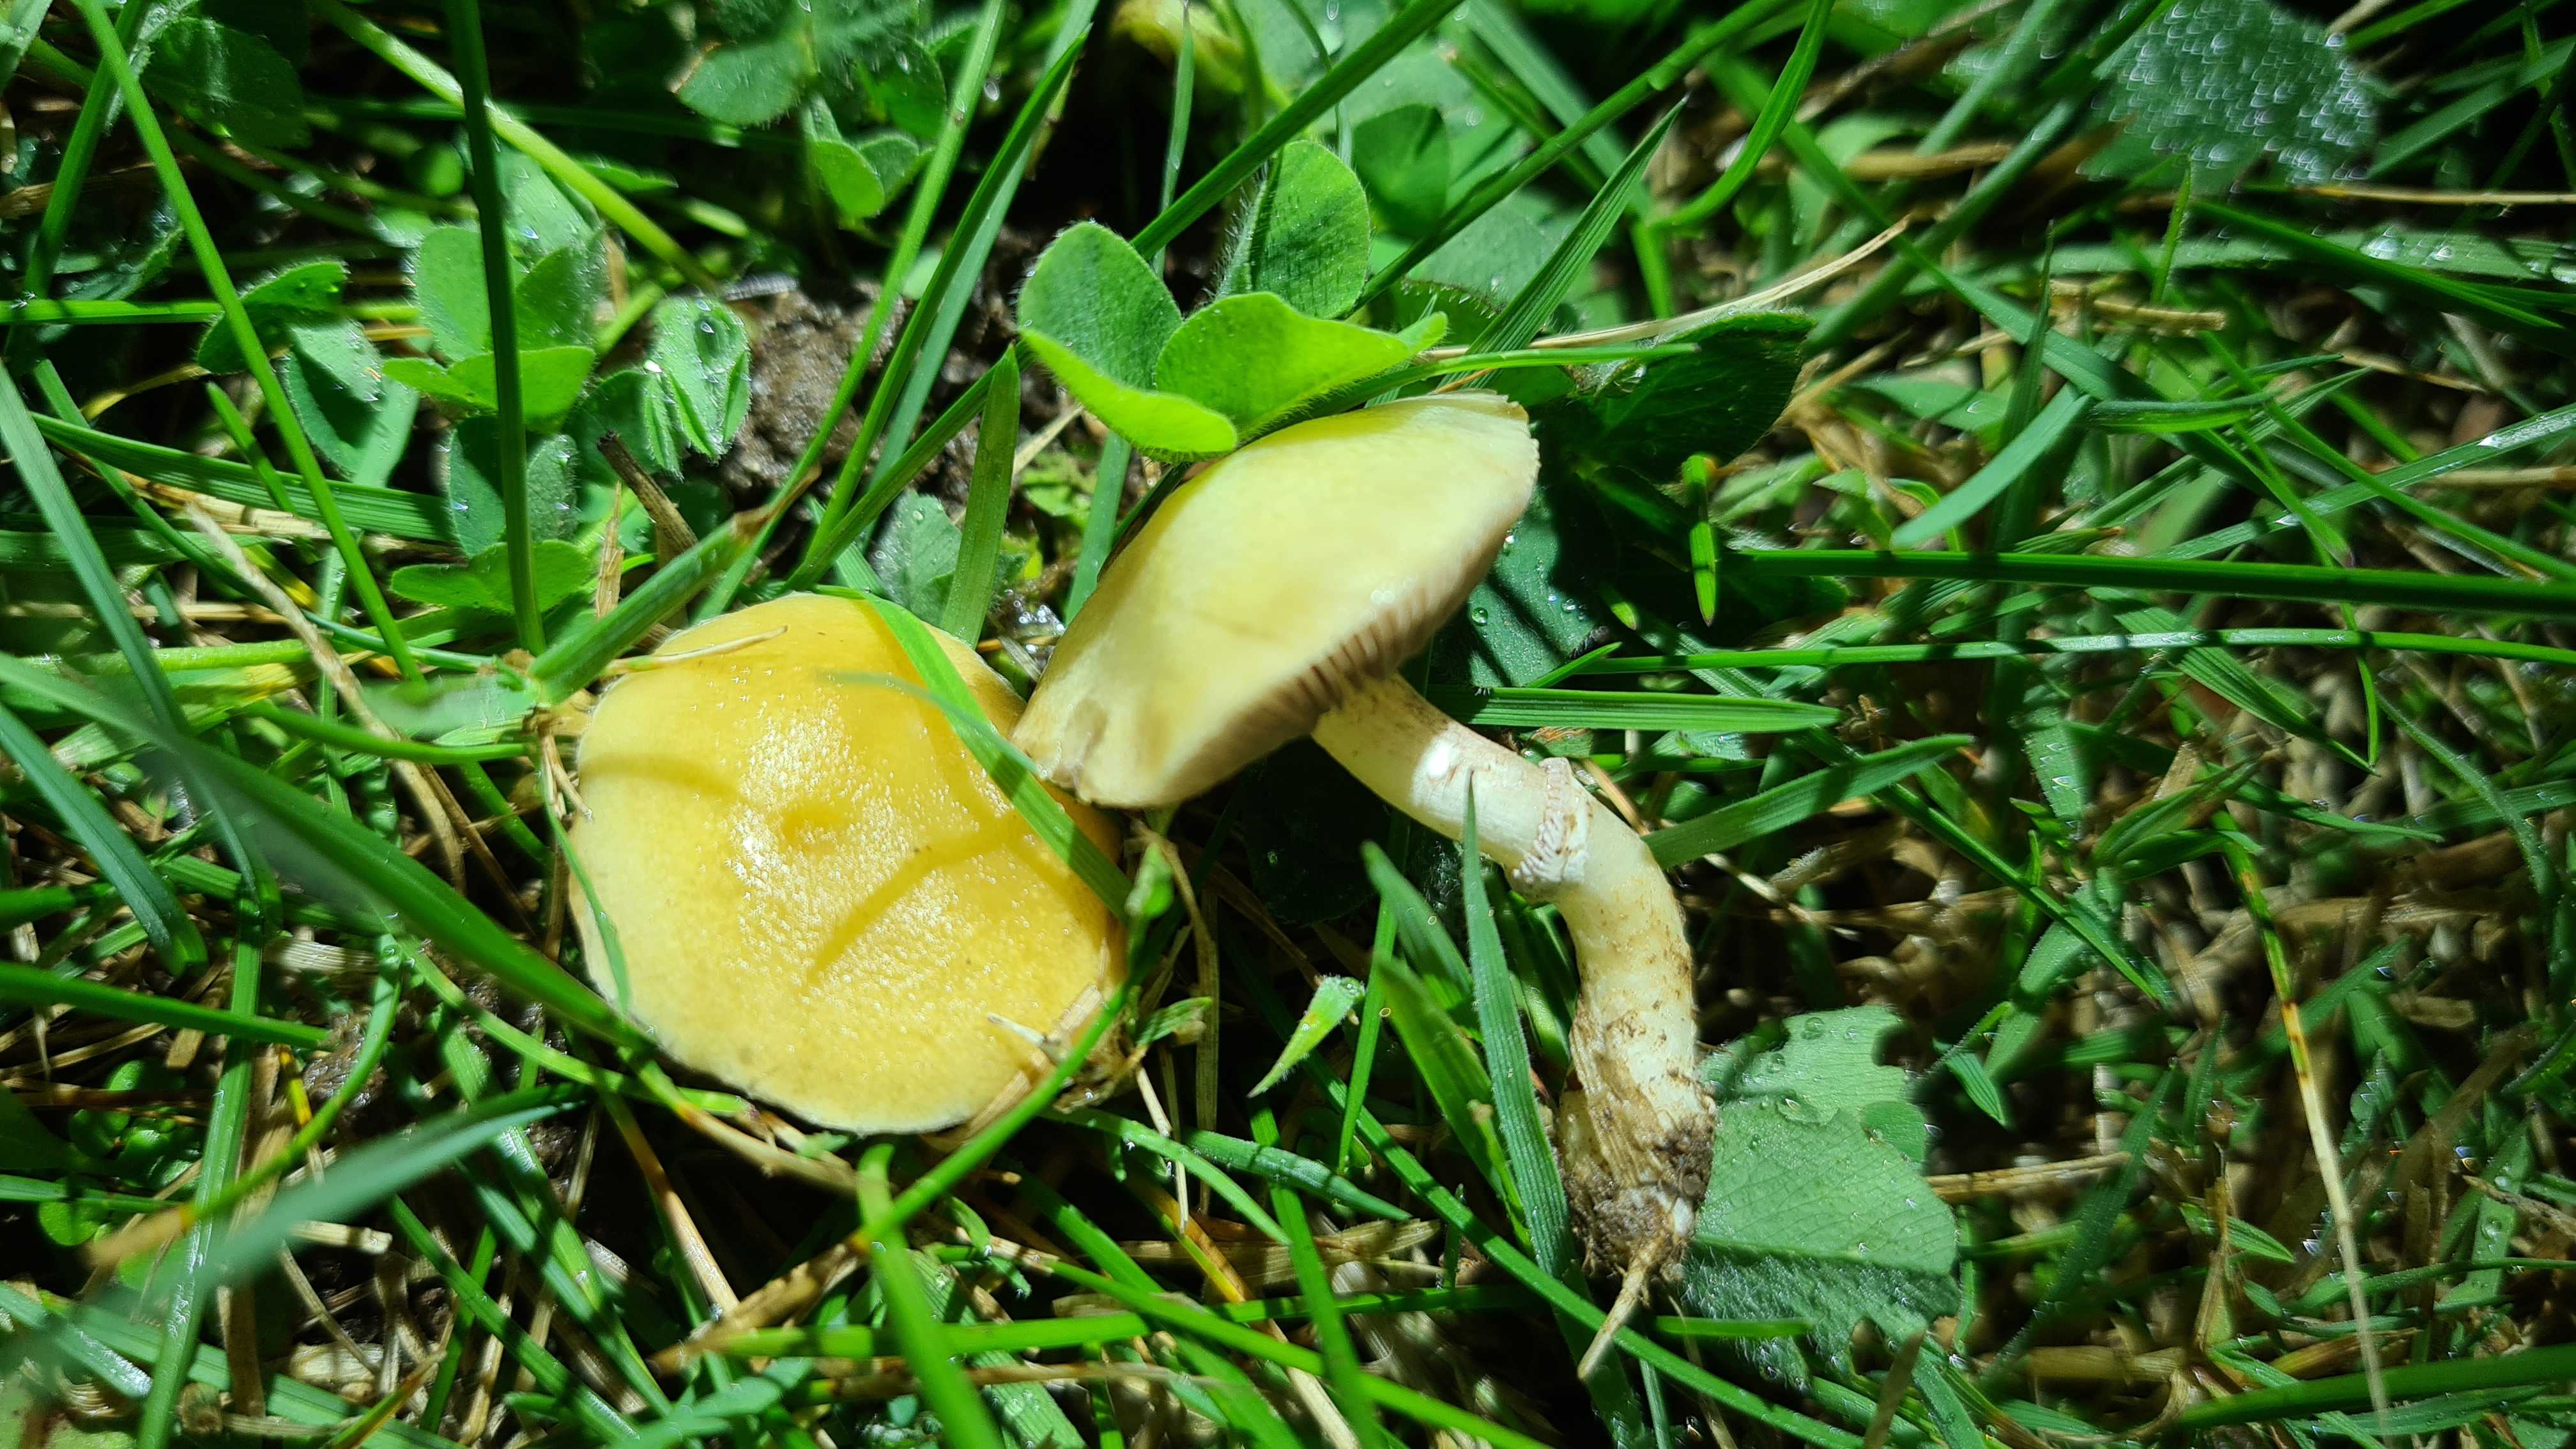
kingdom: Fungi
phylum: Basidiomycota
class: Agaricomycetes
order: Agaricales
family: Hymenogastraceae
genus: Psilocybe
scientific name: Psilocybe coronilla
